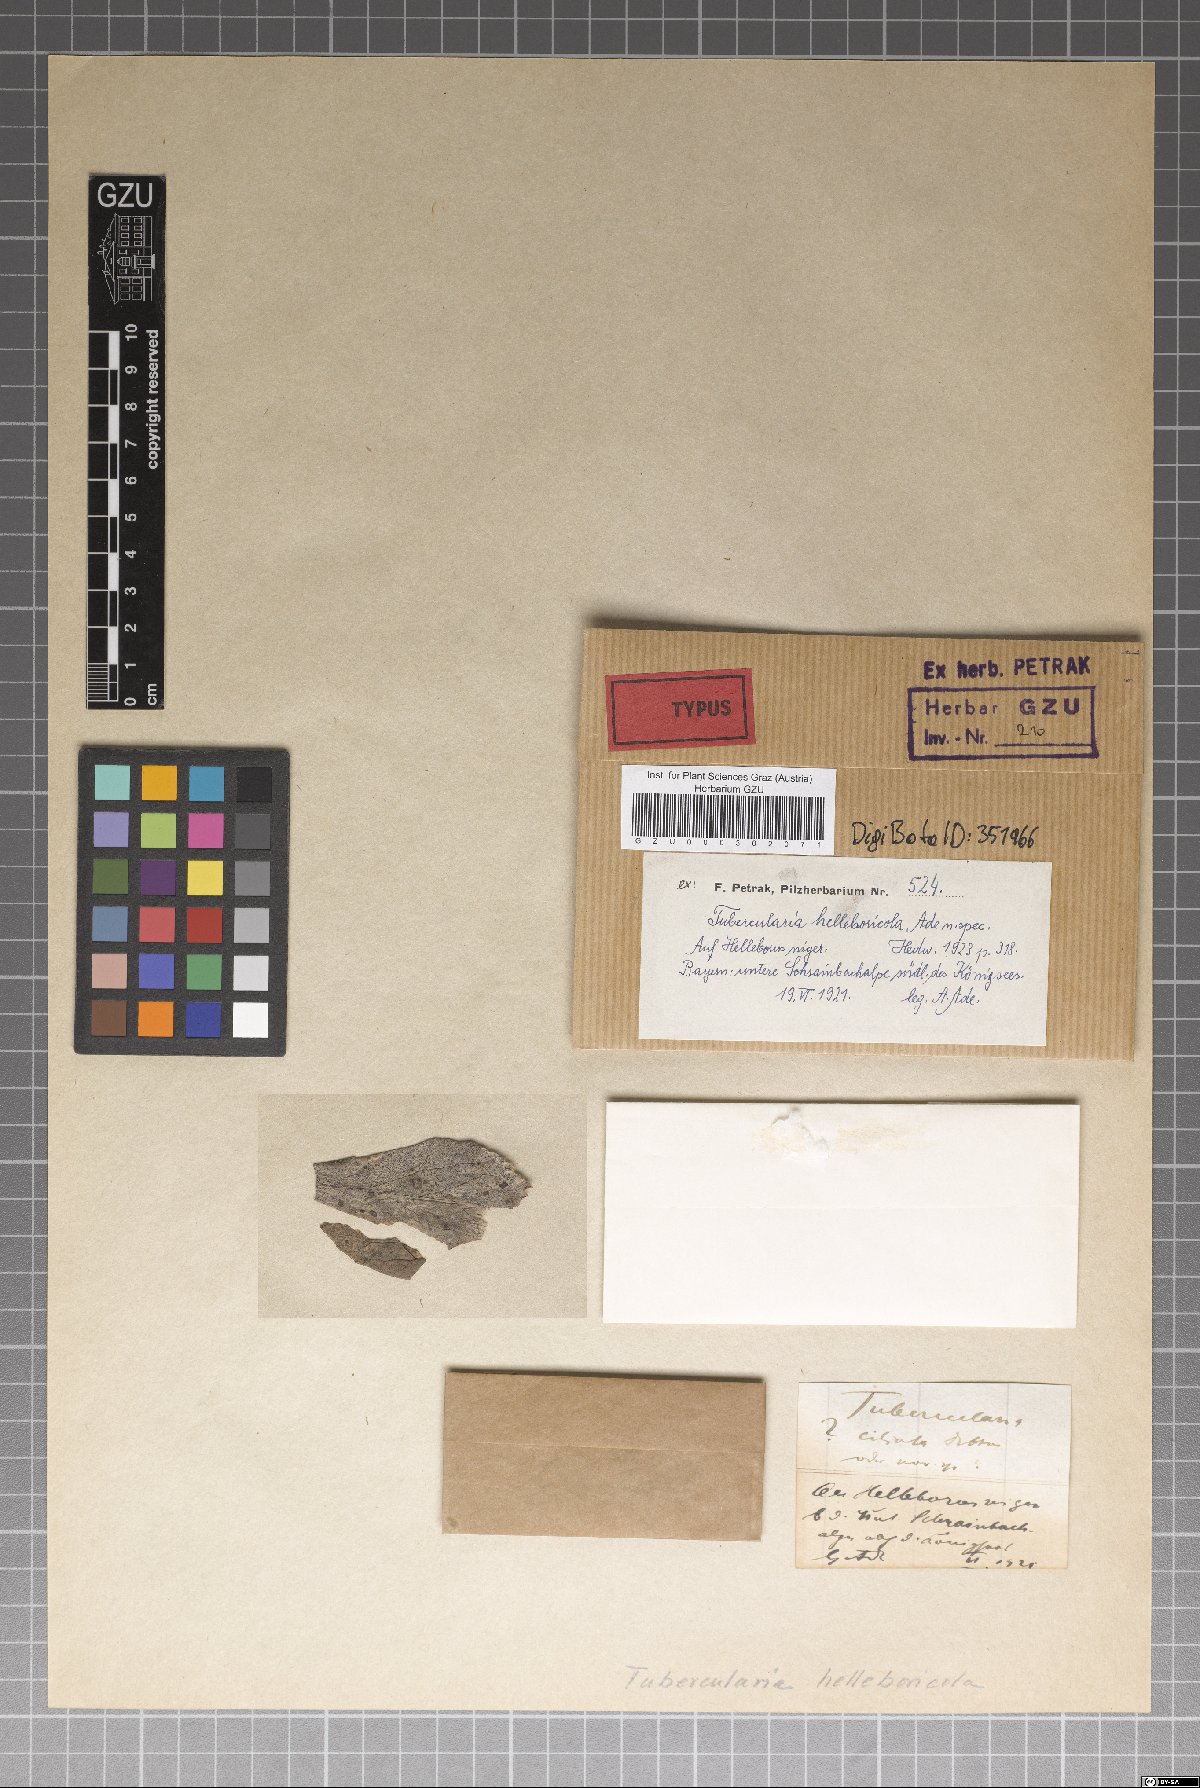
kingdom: Fungi
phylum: Ascomycota
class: Sordariomycetes
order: Hypocreales
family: Nectriaceae
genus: Tubercularia
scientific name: Tubercularia
